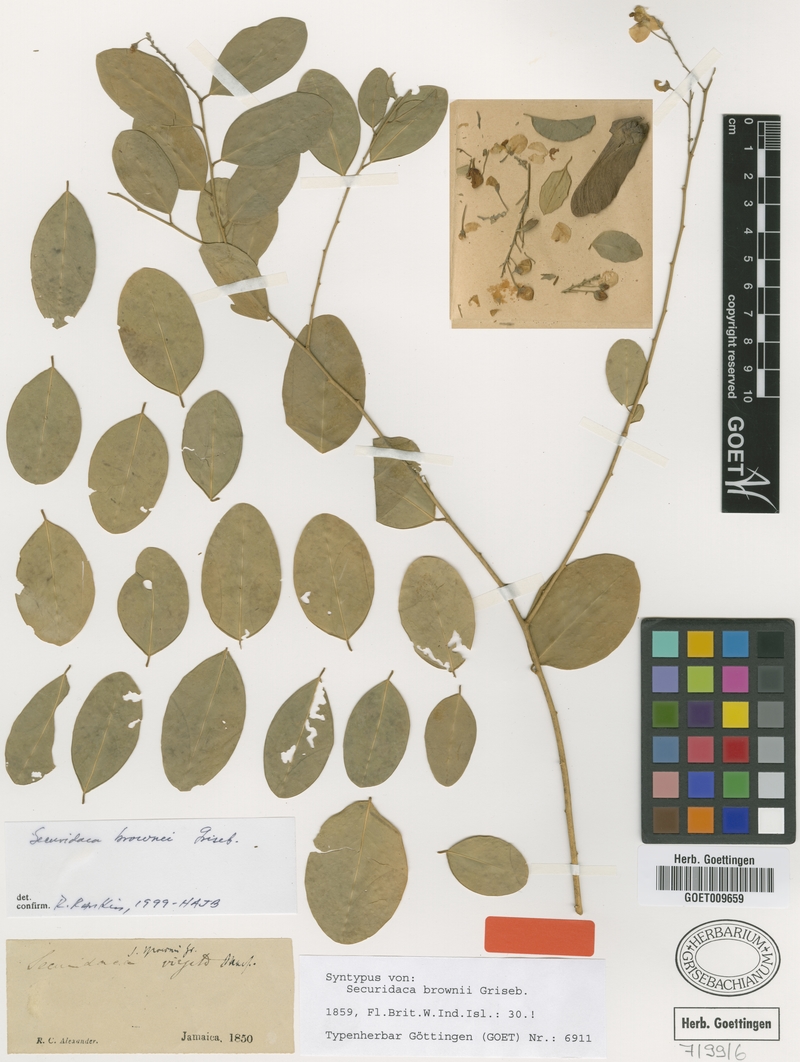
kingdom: Plantae
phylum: Tracheophyta
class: Magnoliopsida
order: Fabales
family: Polygalaceae
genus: Securidaca
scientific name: Securidaca brownii
